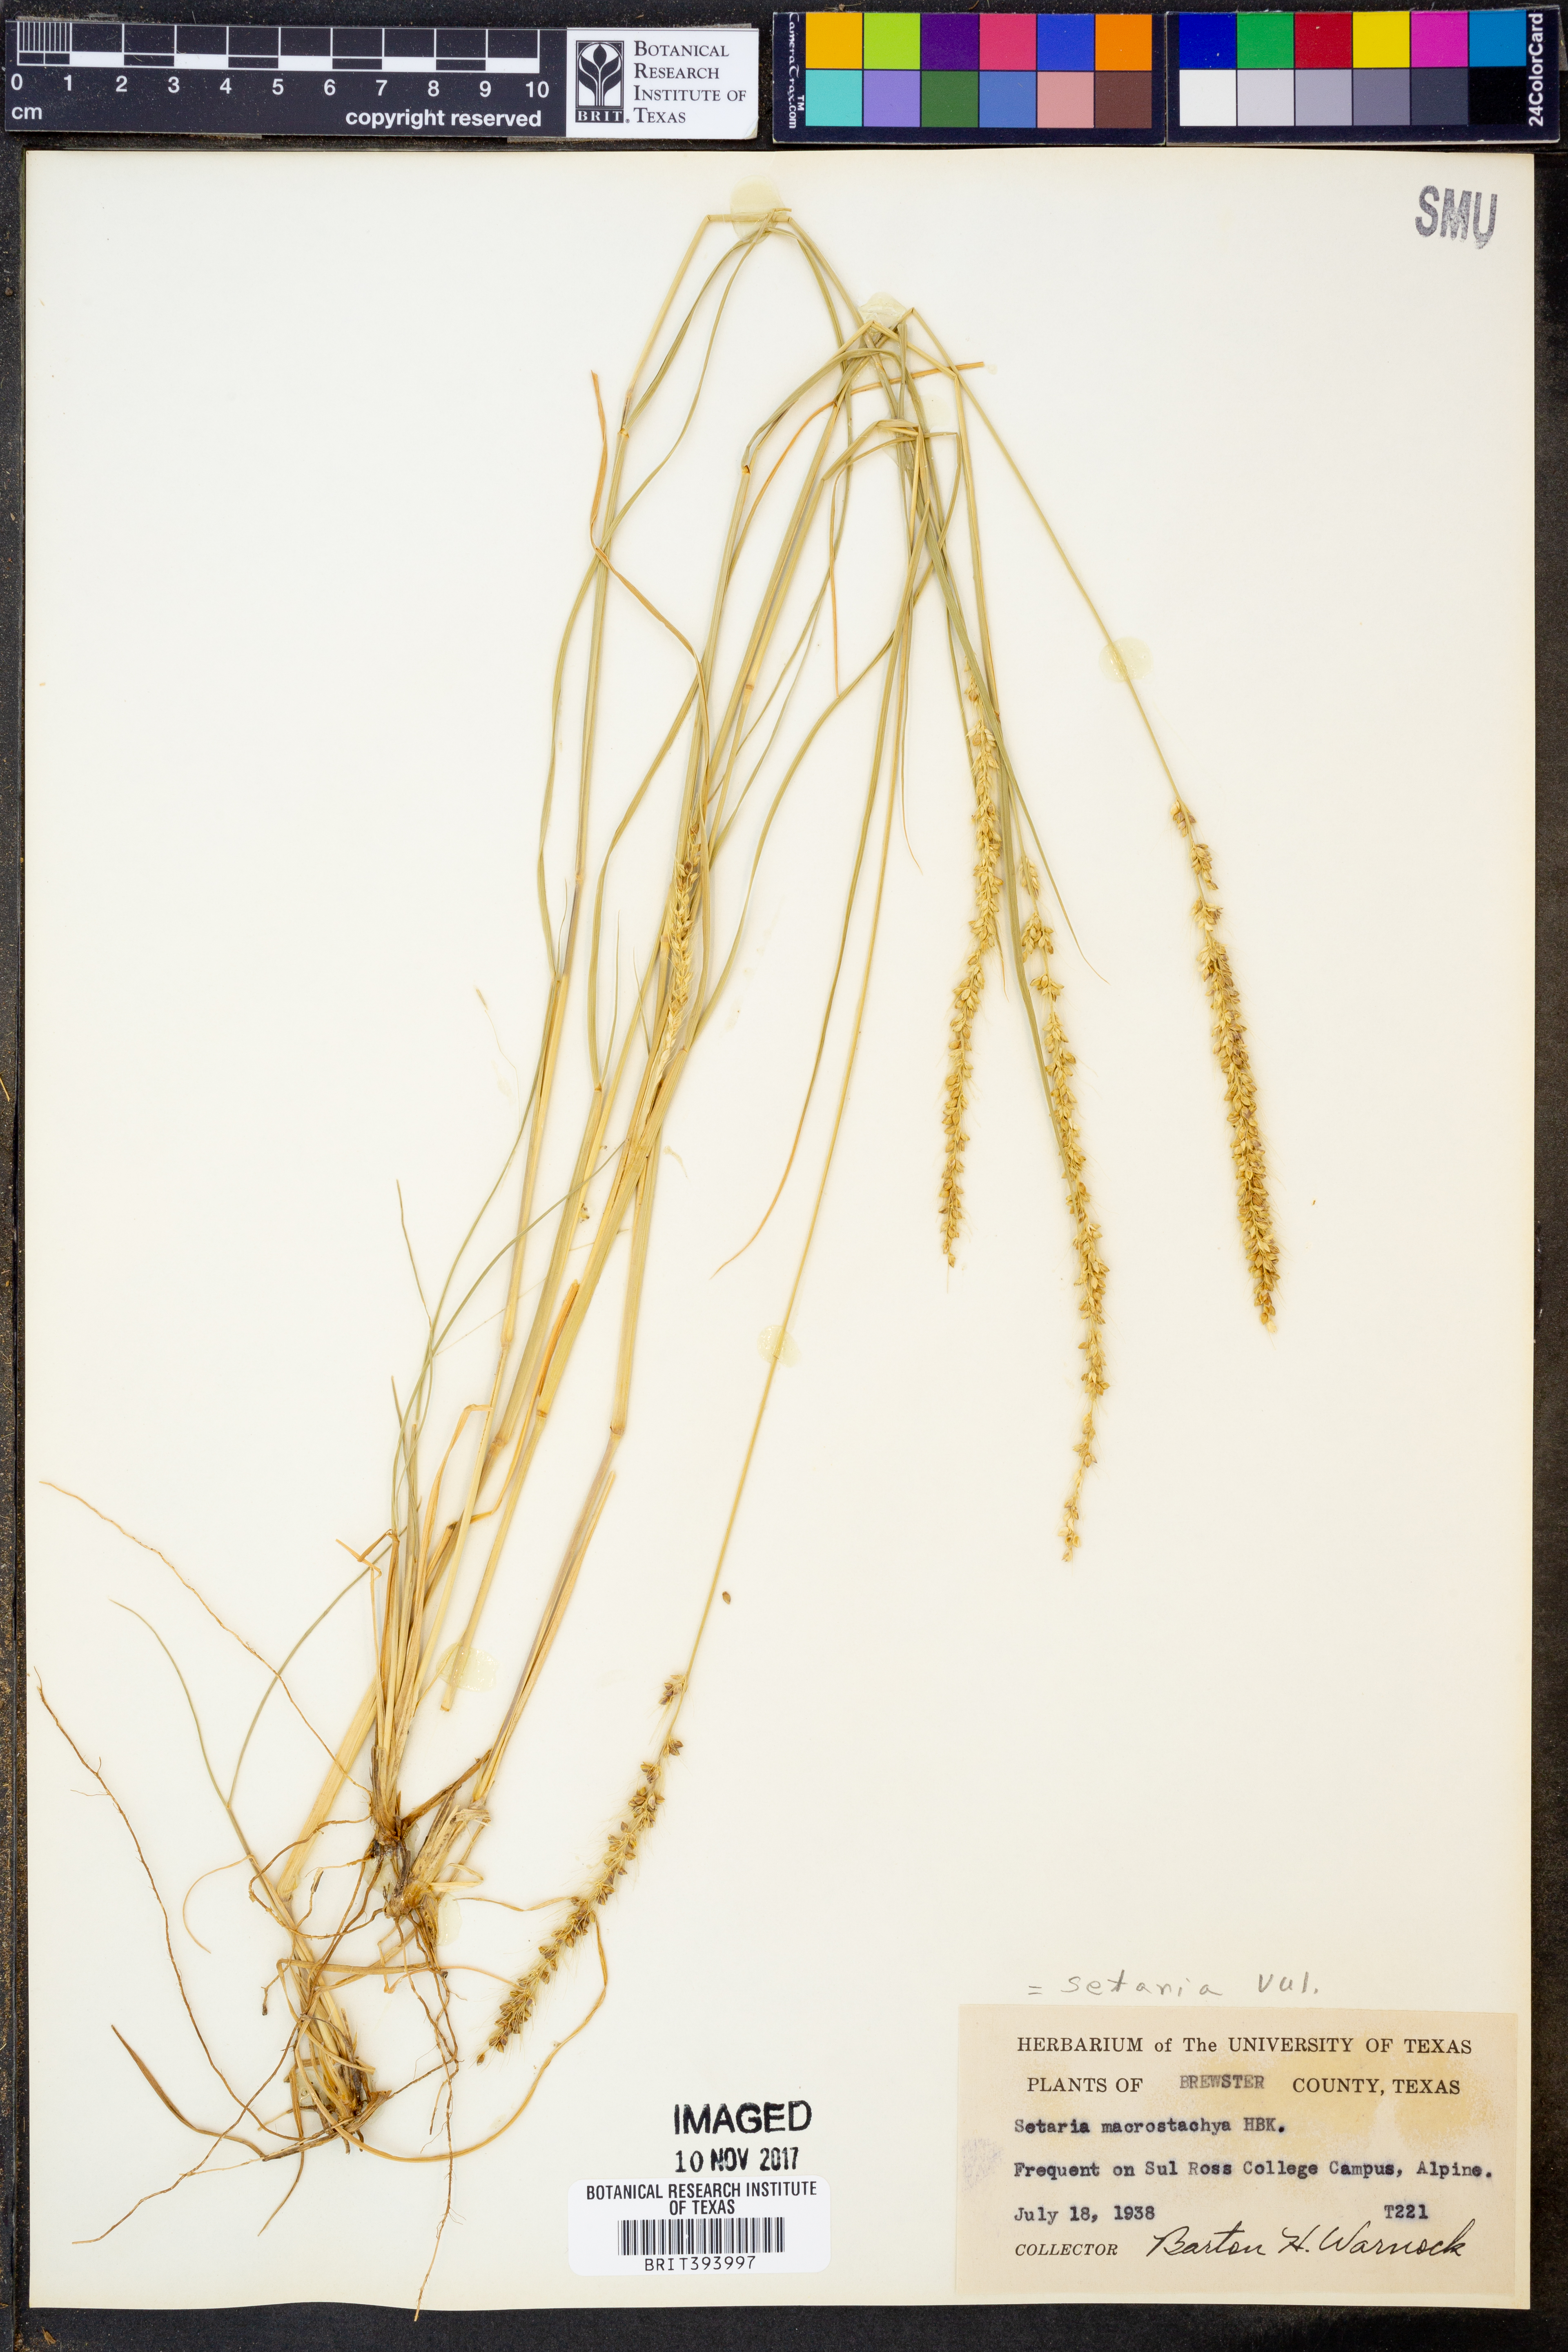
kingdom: Plantae
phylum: Tracheophyta
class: Liliopsida
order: Poales
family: Poaceae
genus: Setaria
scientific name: Setaria macrostachya
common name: Plains bristle grass
